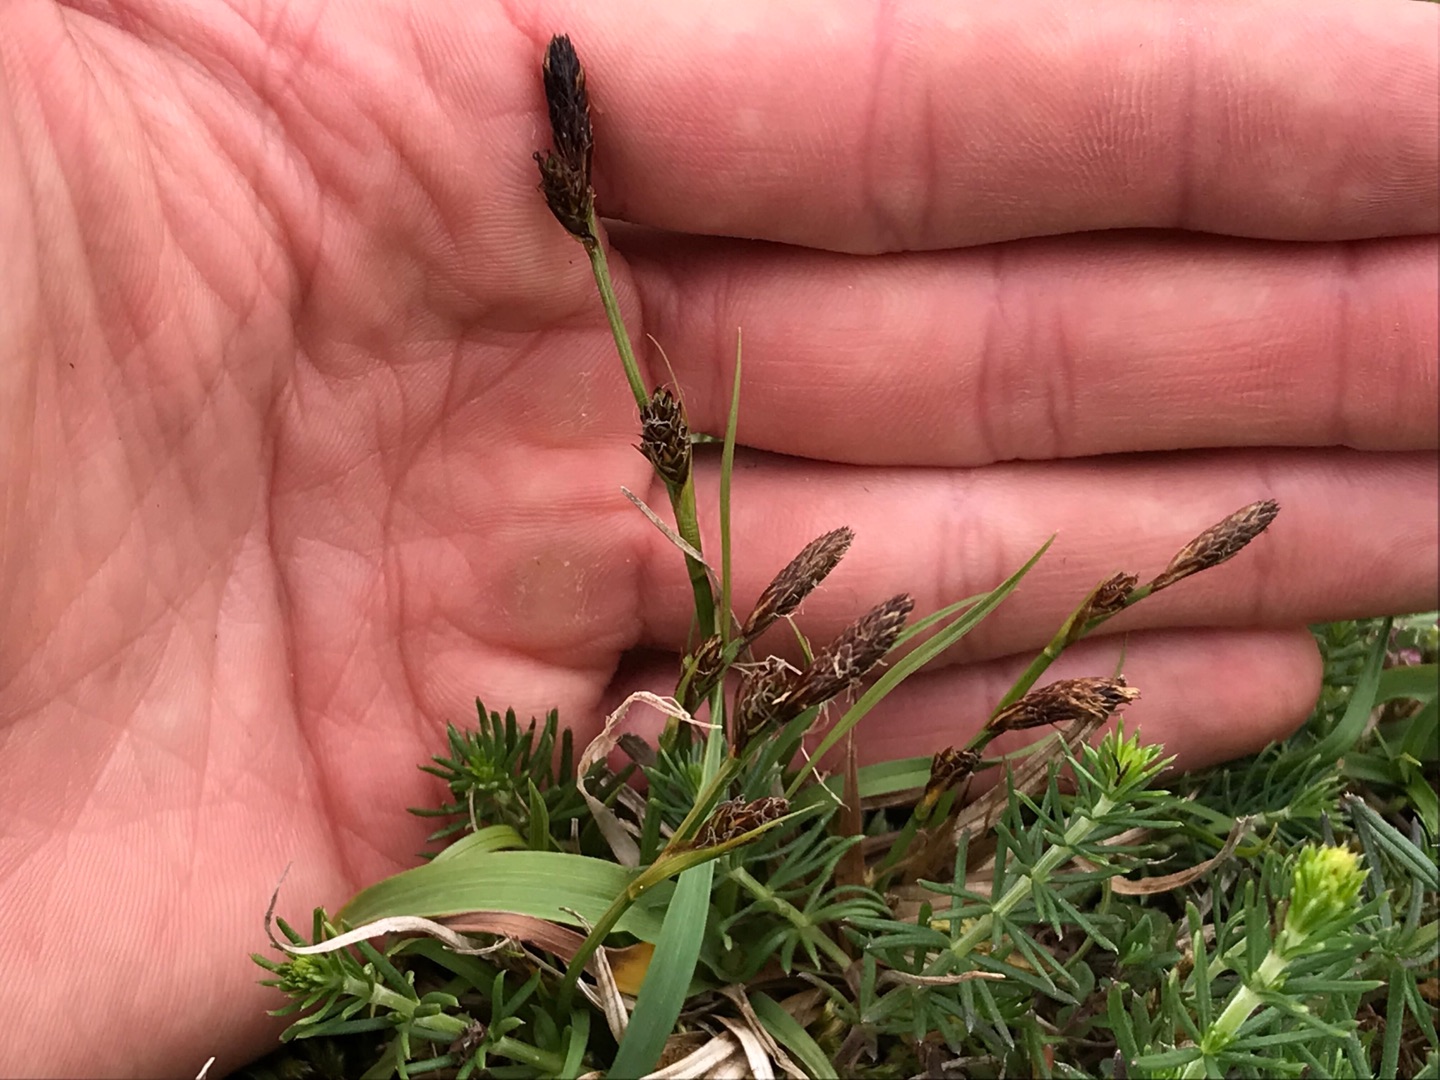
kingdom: Plantae
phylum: Tracheophyta
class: Liliopsida
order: Poales
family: Cyperaceae
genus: Carex
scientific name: Carex caryophyllea
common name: Vår-star
